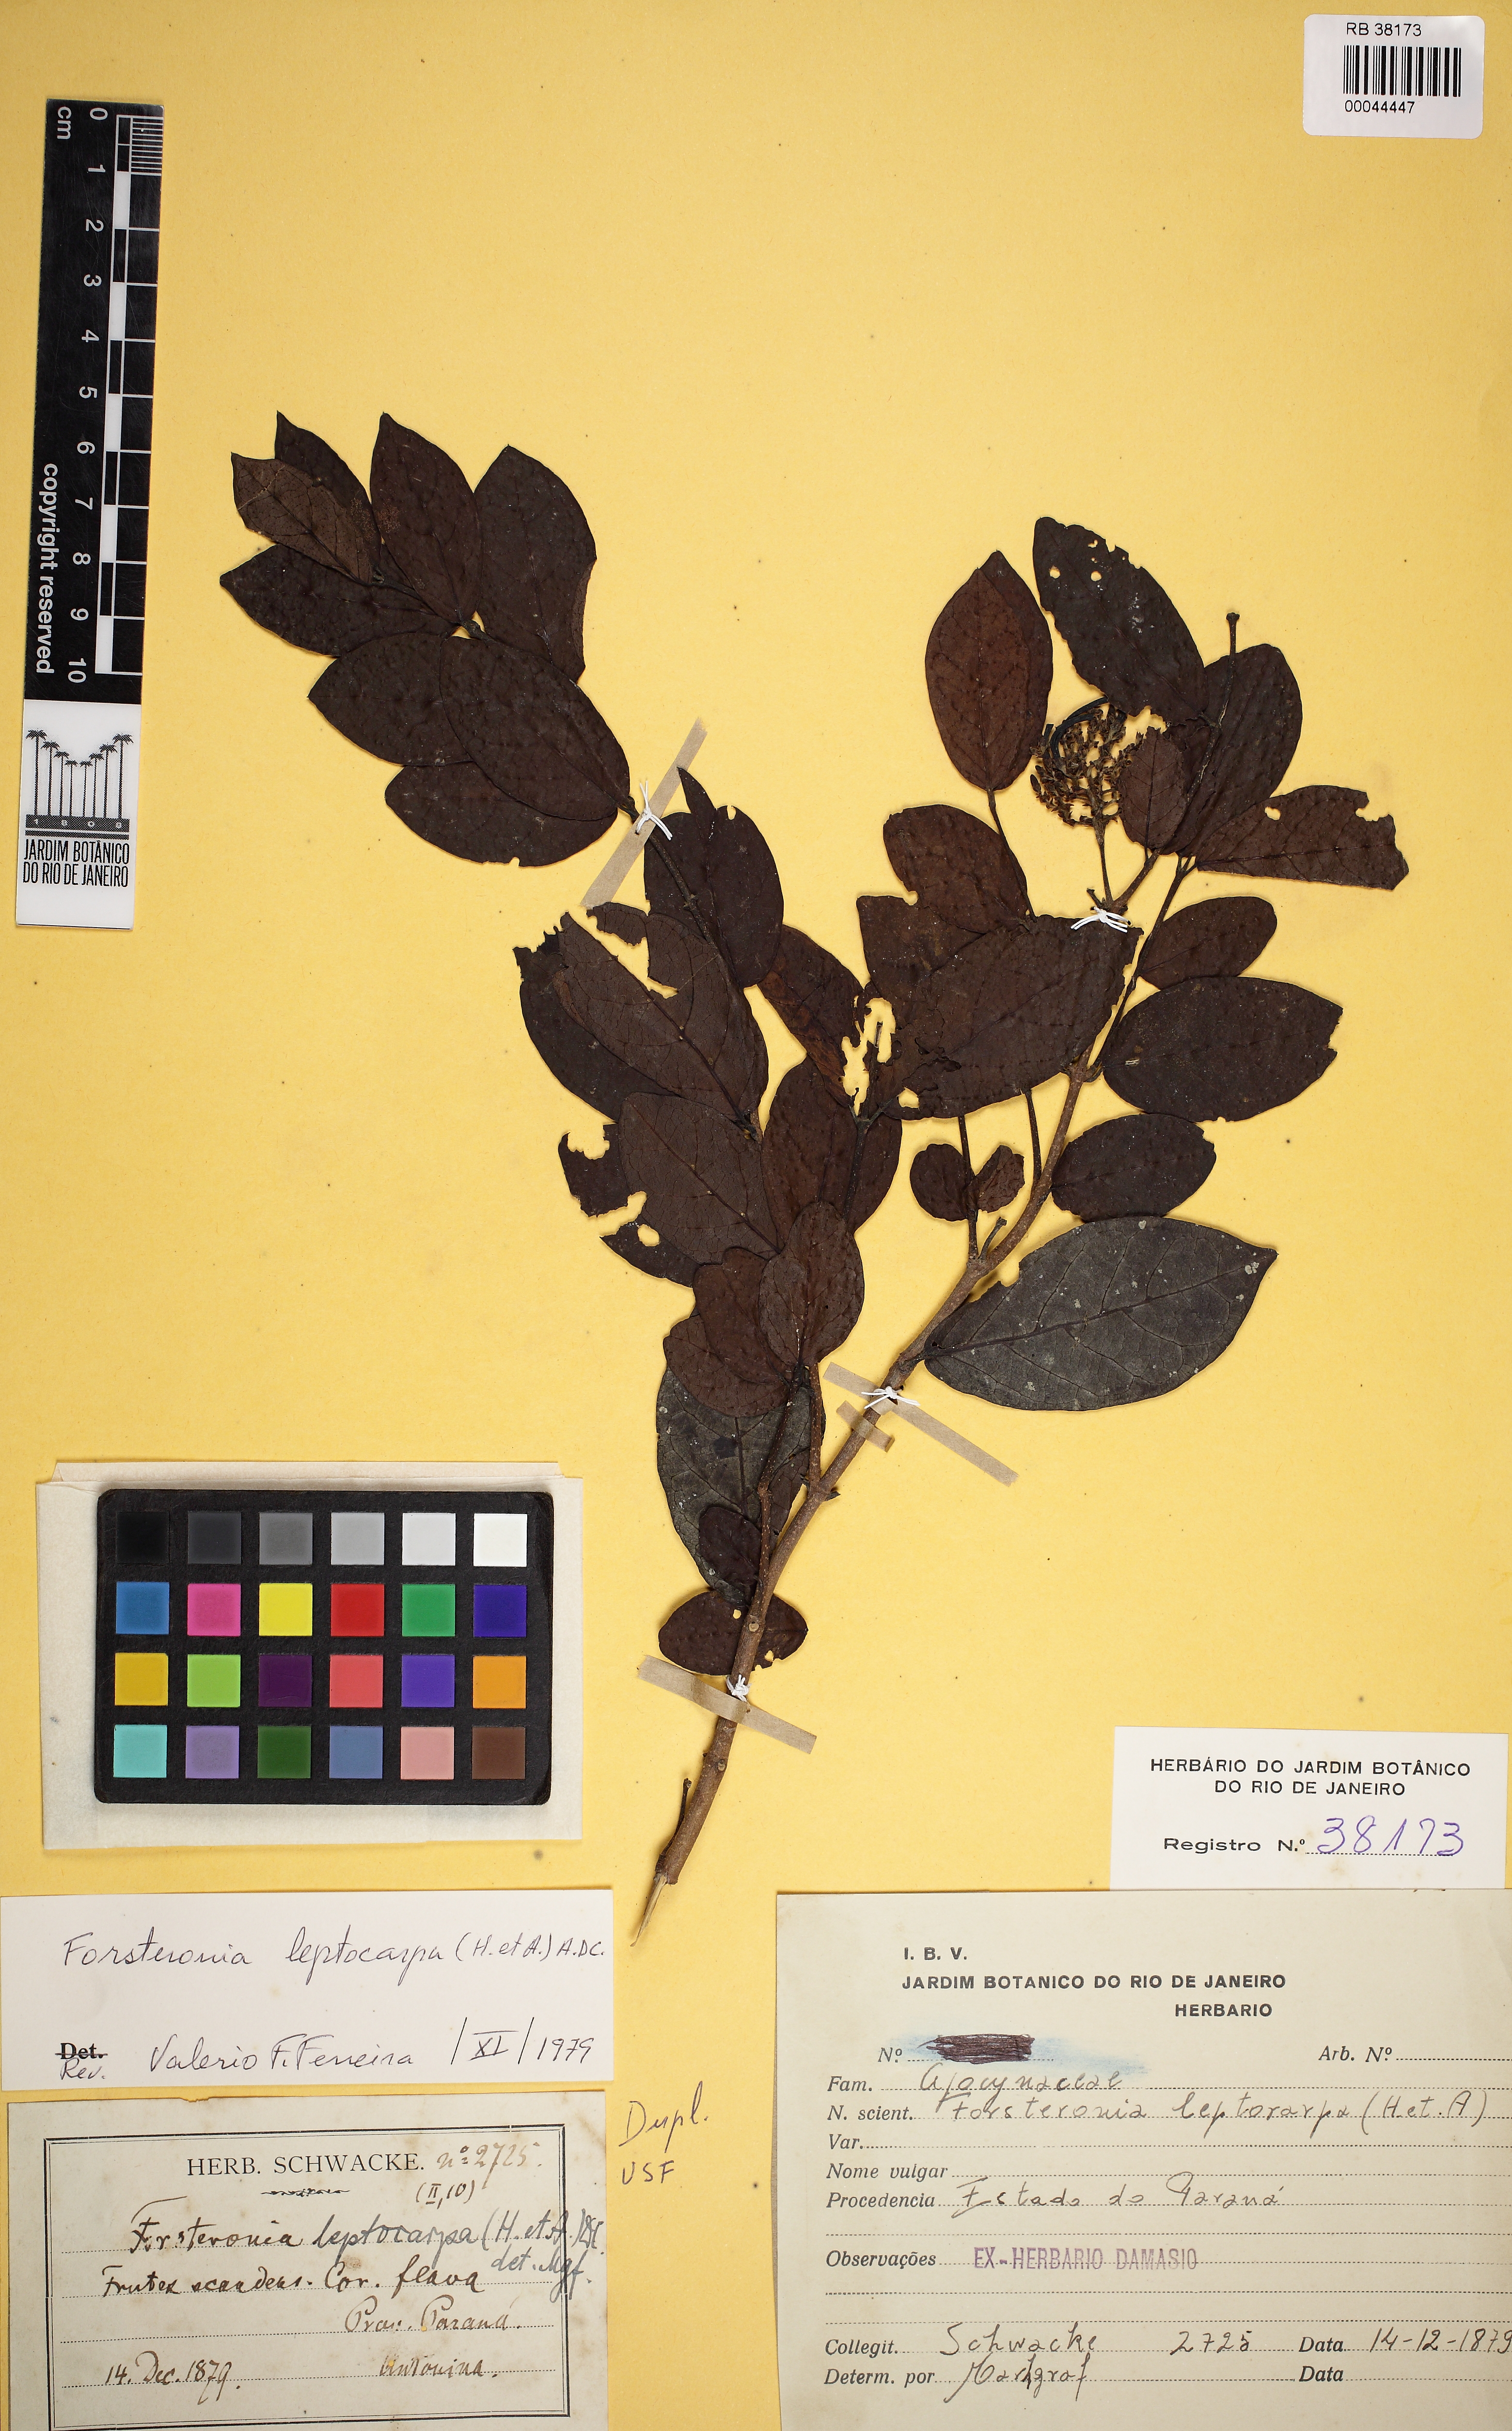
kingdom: Plantae
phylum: Tracheophyta
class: Magnoliopsida
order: Gentianales
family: Apocynaceae
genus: Forsteronia
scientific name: Forsteronia leptocarpa
